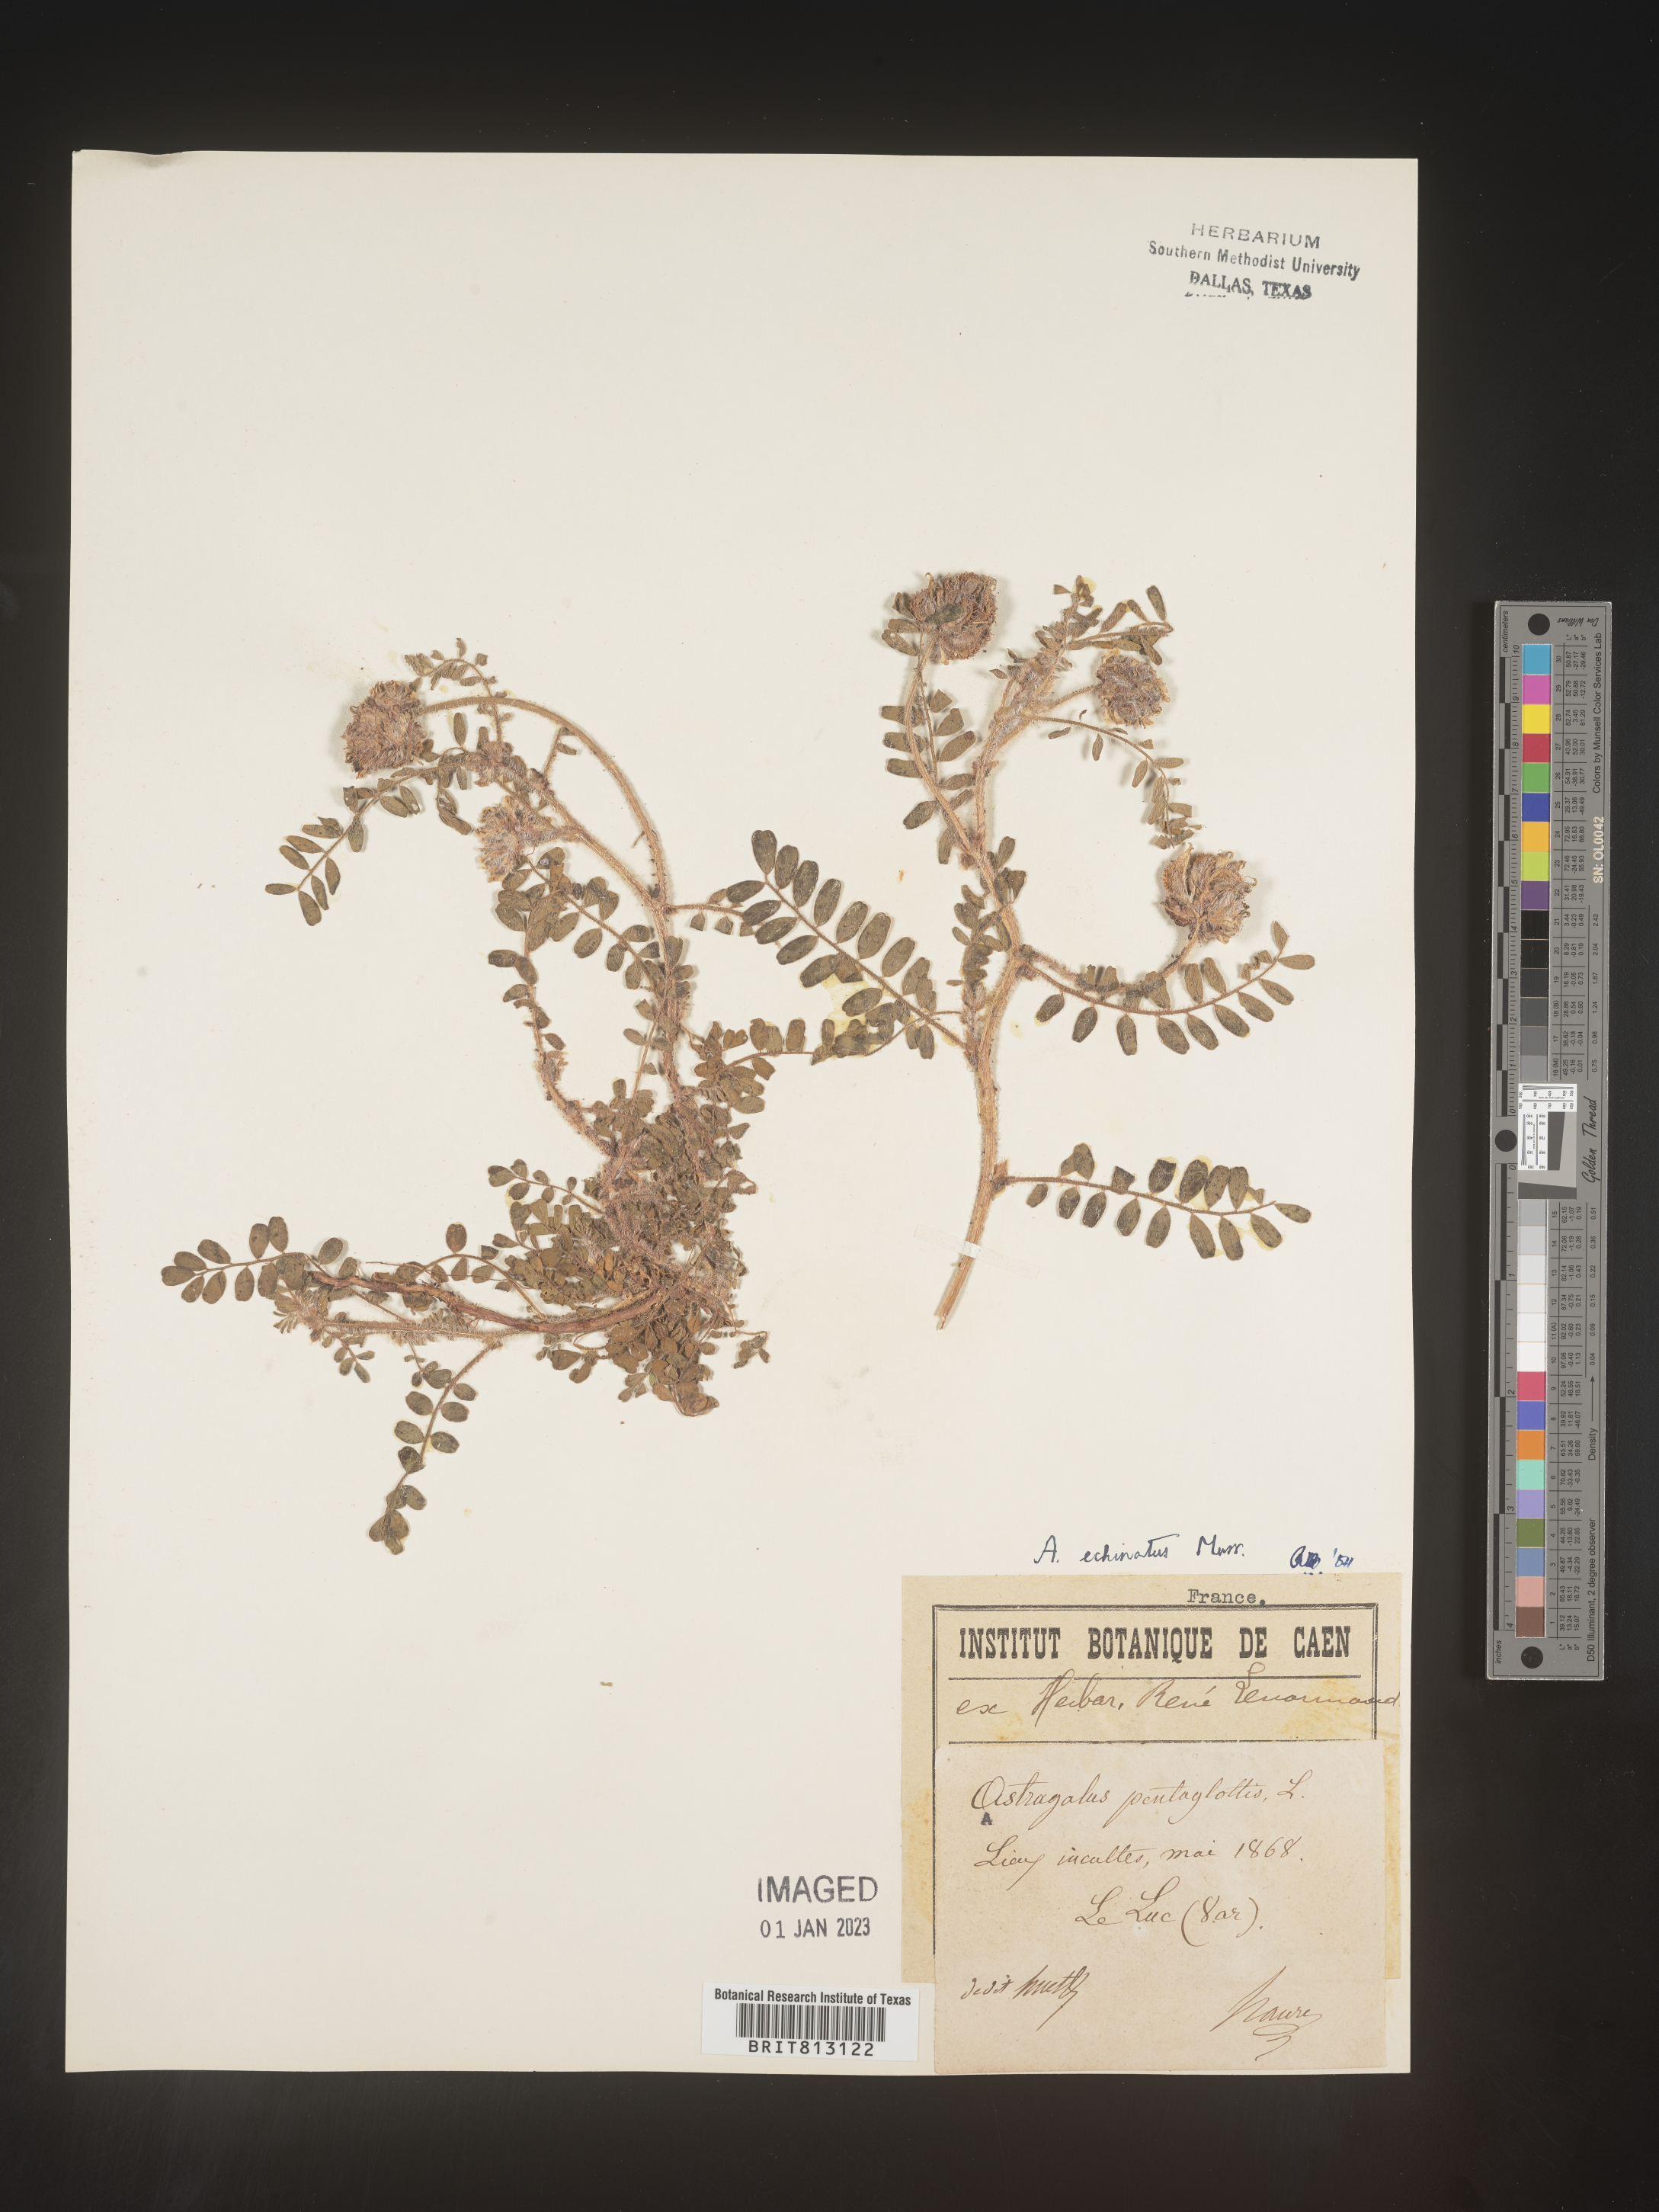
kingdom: Plantae
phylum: Tracheophyta
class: Magnoliopsida
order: Fabales
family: Fabaceae
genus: Astragalus
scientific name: Astragalus
